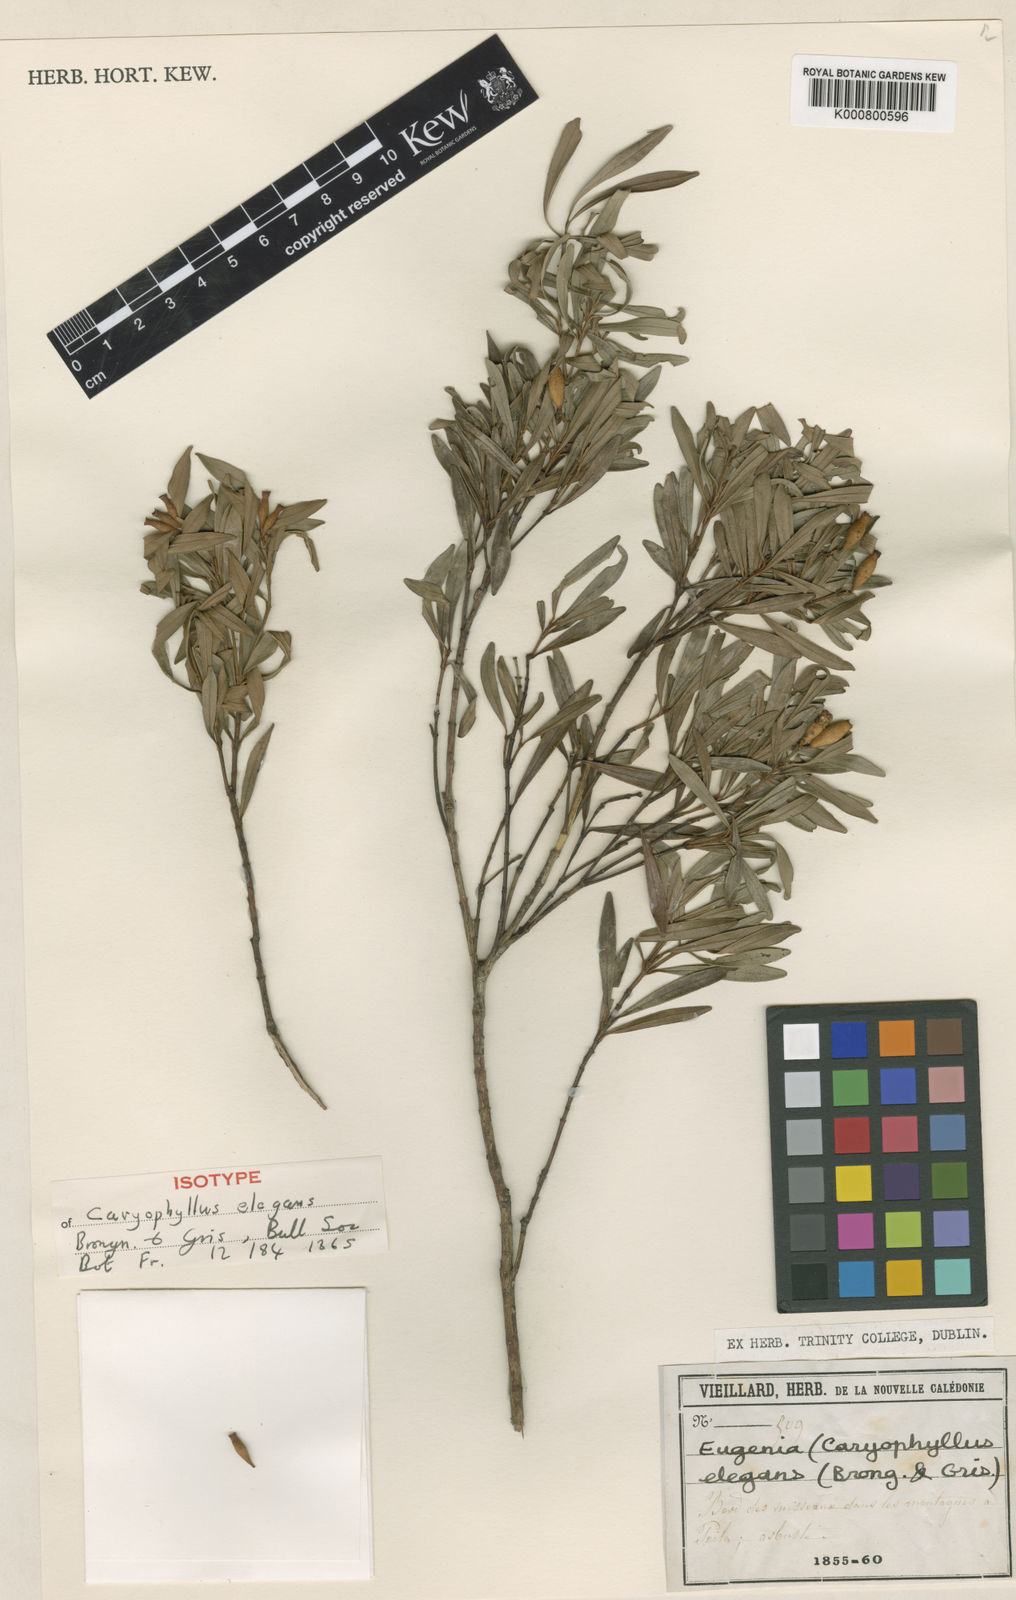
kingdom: Plantae
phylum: Tracheophyta
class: Magnoliopsida
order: Myrtales
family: Myrtaceae
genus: Syzygium
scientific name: Syzygium elegans
